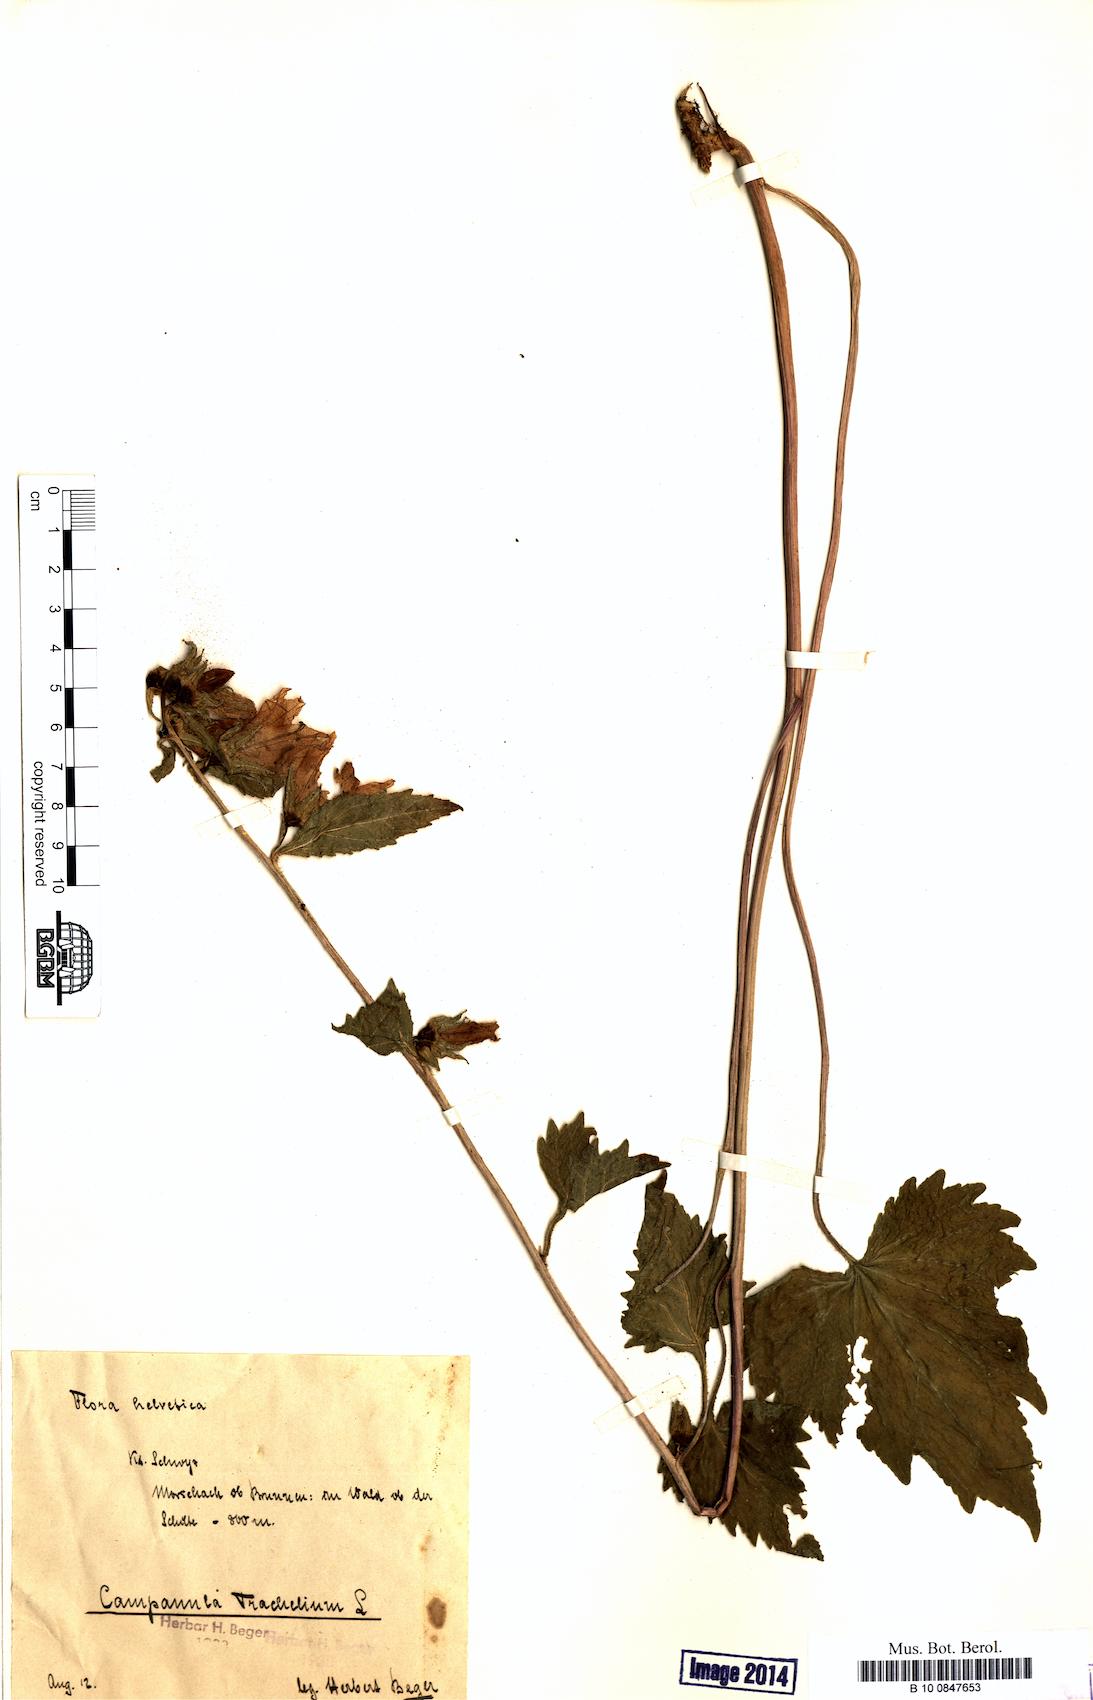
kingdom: Plantae
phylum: Tracheophyta
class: Magnoliopsida
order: Asterales
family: Campanulaceae
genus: Campanula
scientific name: Campanula trachelium
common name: Nettle-leaved bellflower
